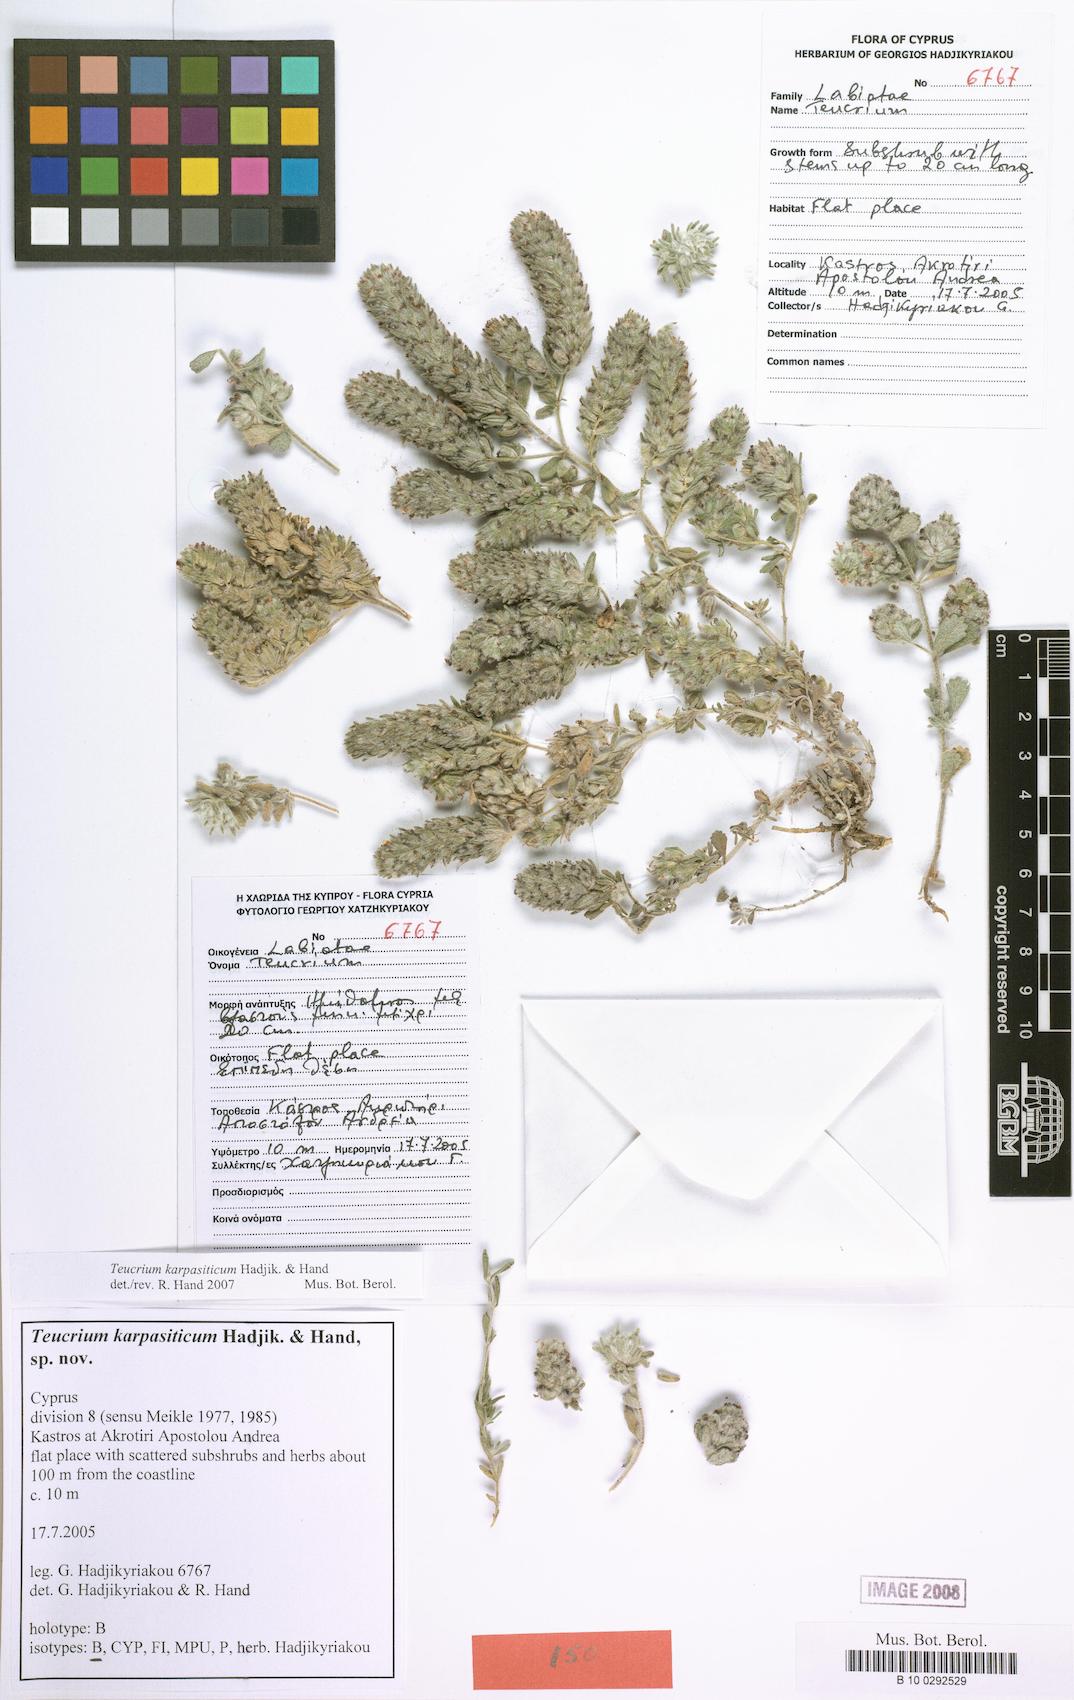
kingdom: Plantae
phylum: Tracheophyta
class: Magnoliopsida
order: Lamiales
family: Lamiaceae
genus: Teucrium
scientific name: Teucrium karpasiticum
